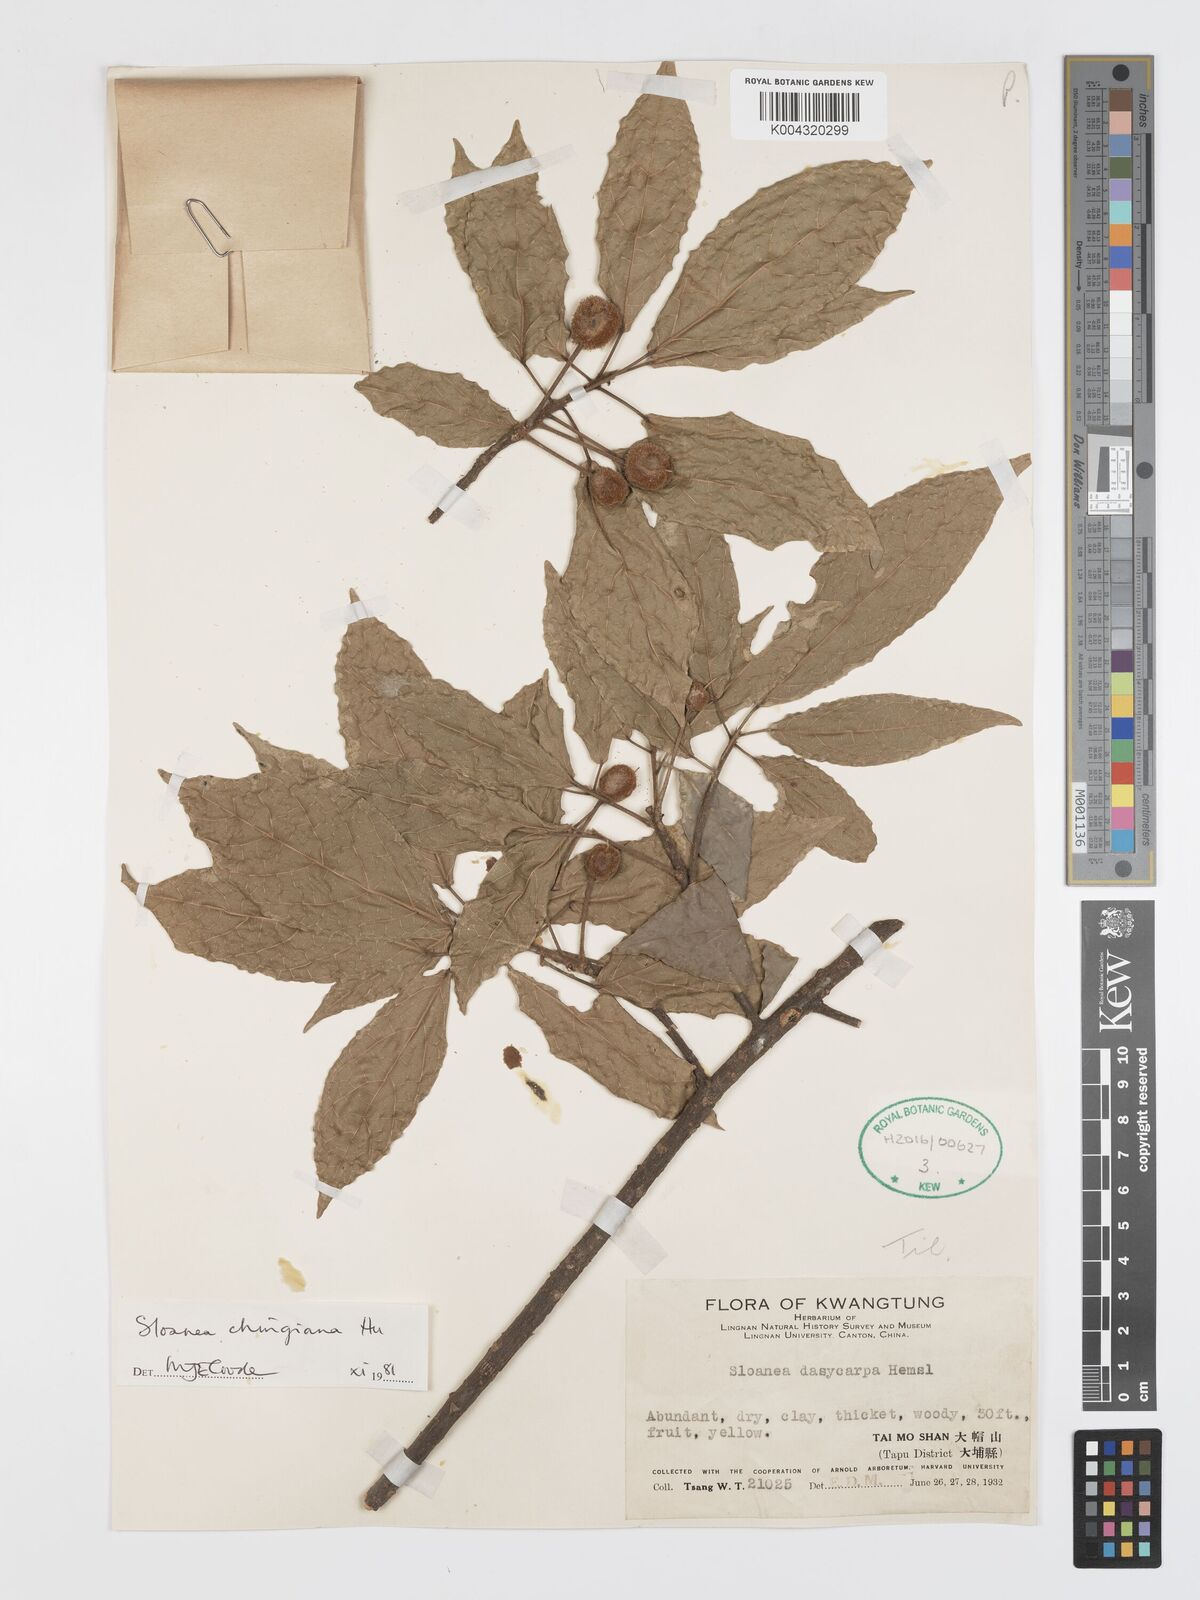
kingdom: Plantae
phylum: Tracheophyta
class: Magnoliopsida
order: Oxalidales
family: Elaeocarpaceae
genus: Sloanea
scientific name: Sloanea chingiana
